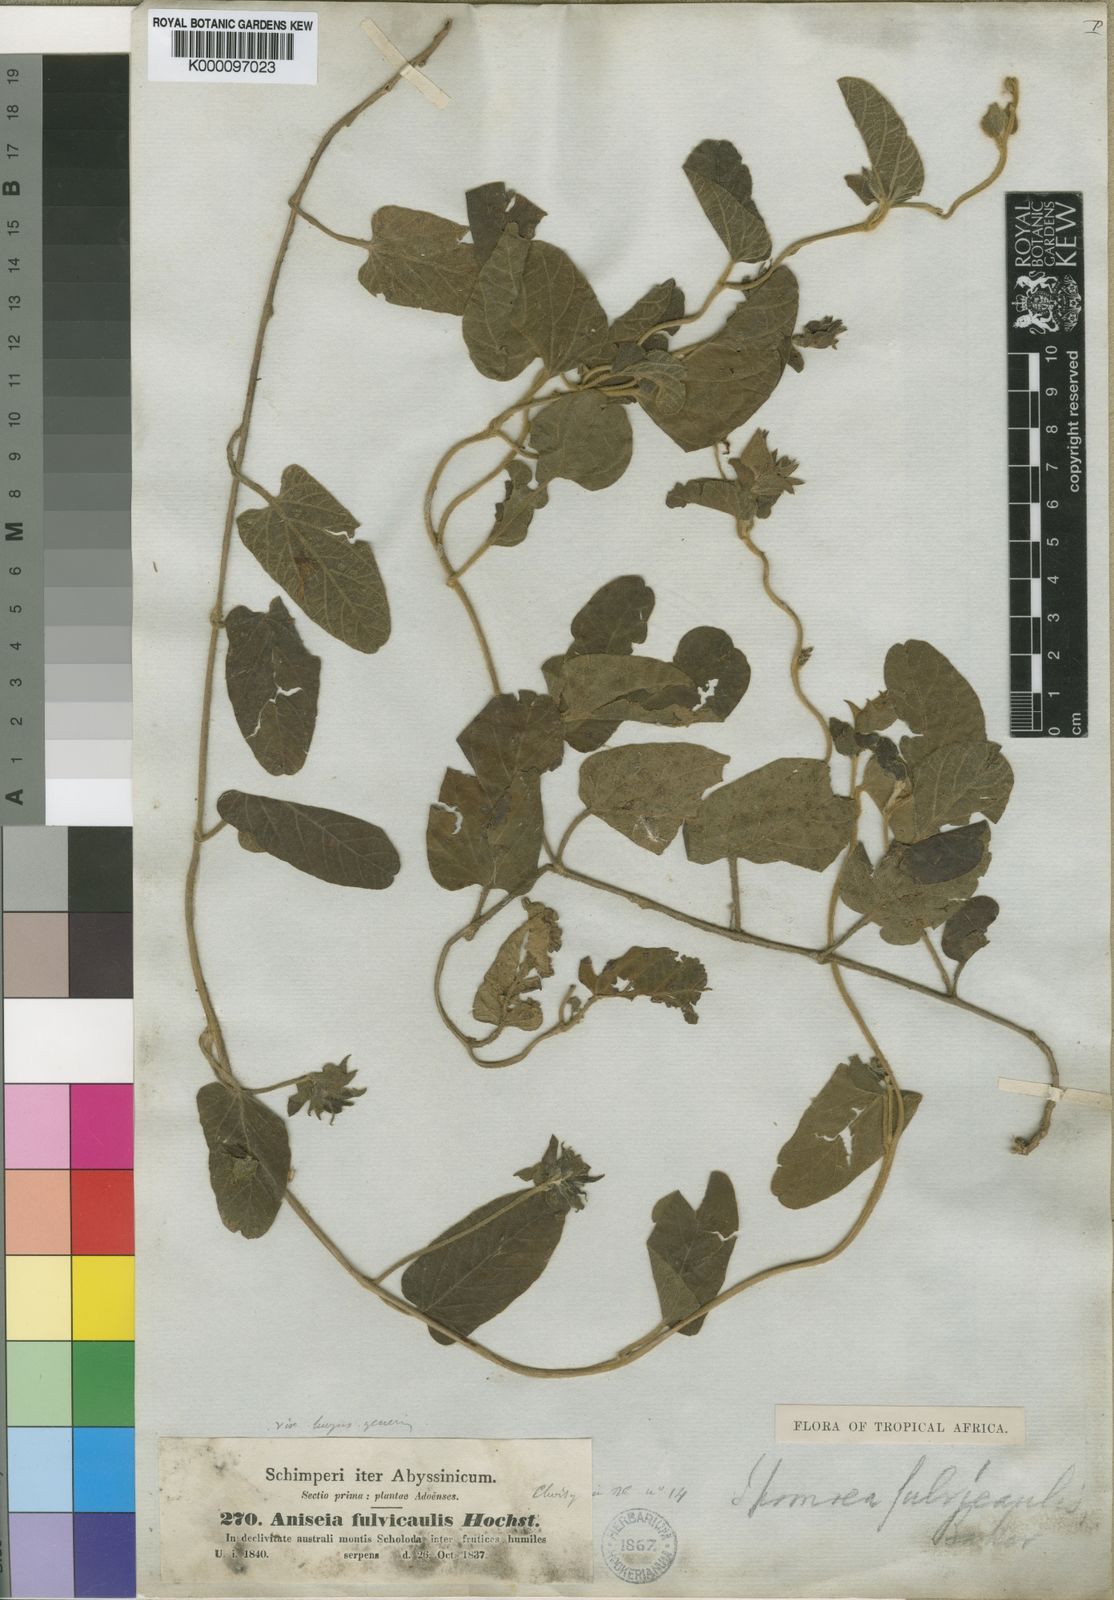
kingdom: Plantae
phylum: Tracheophyta
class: Magnoliopsida
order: Solanales
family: Convolvulaceae
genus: Ipomoea
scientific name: Ipomoea fulvicaulis
